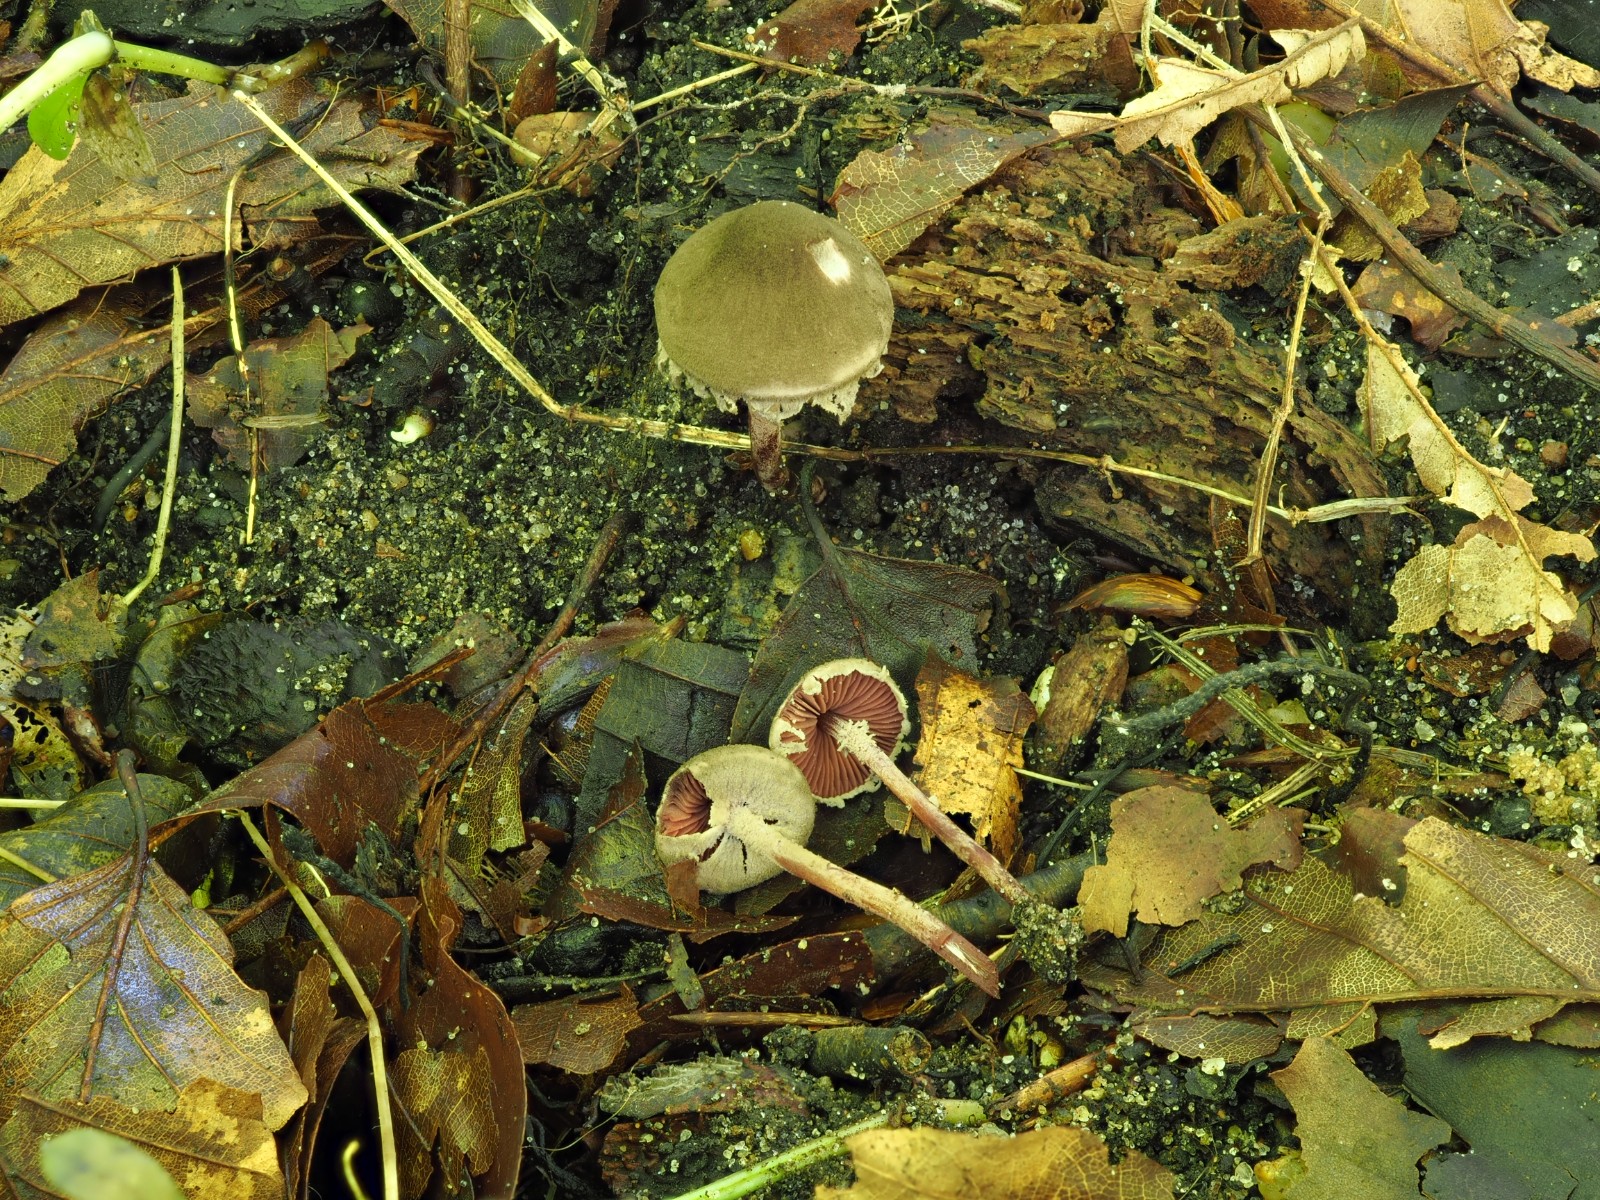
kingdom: Fungi
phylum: Basidiomycota
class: Agaricomycetes
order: Agaricales
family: Agaricaceae
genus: Melanophyllum
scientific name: Melanophyllum haematospermum
